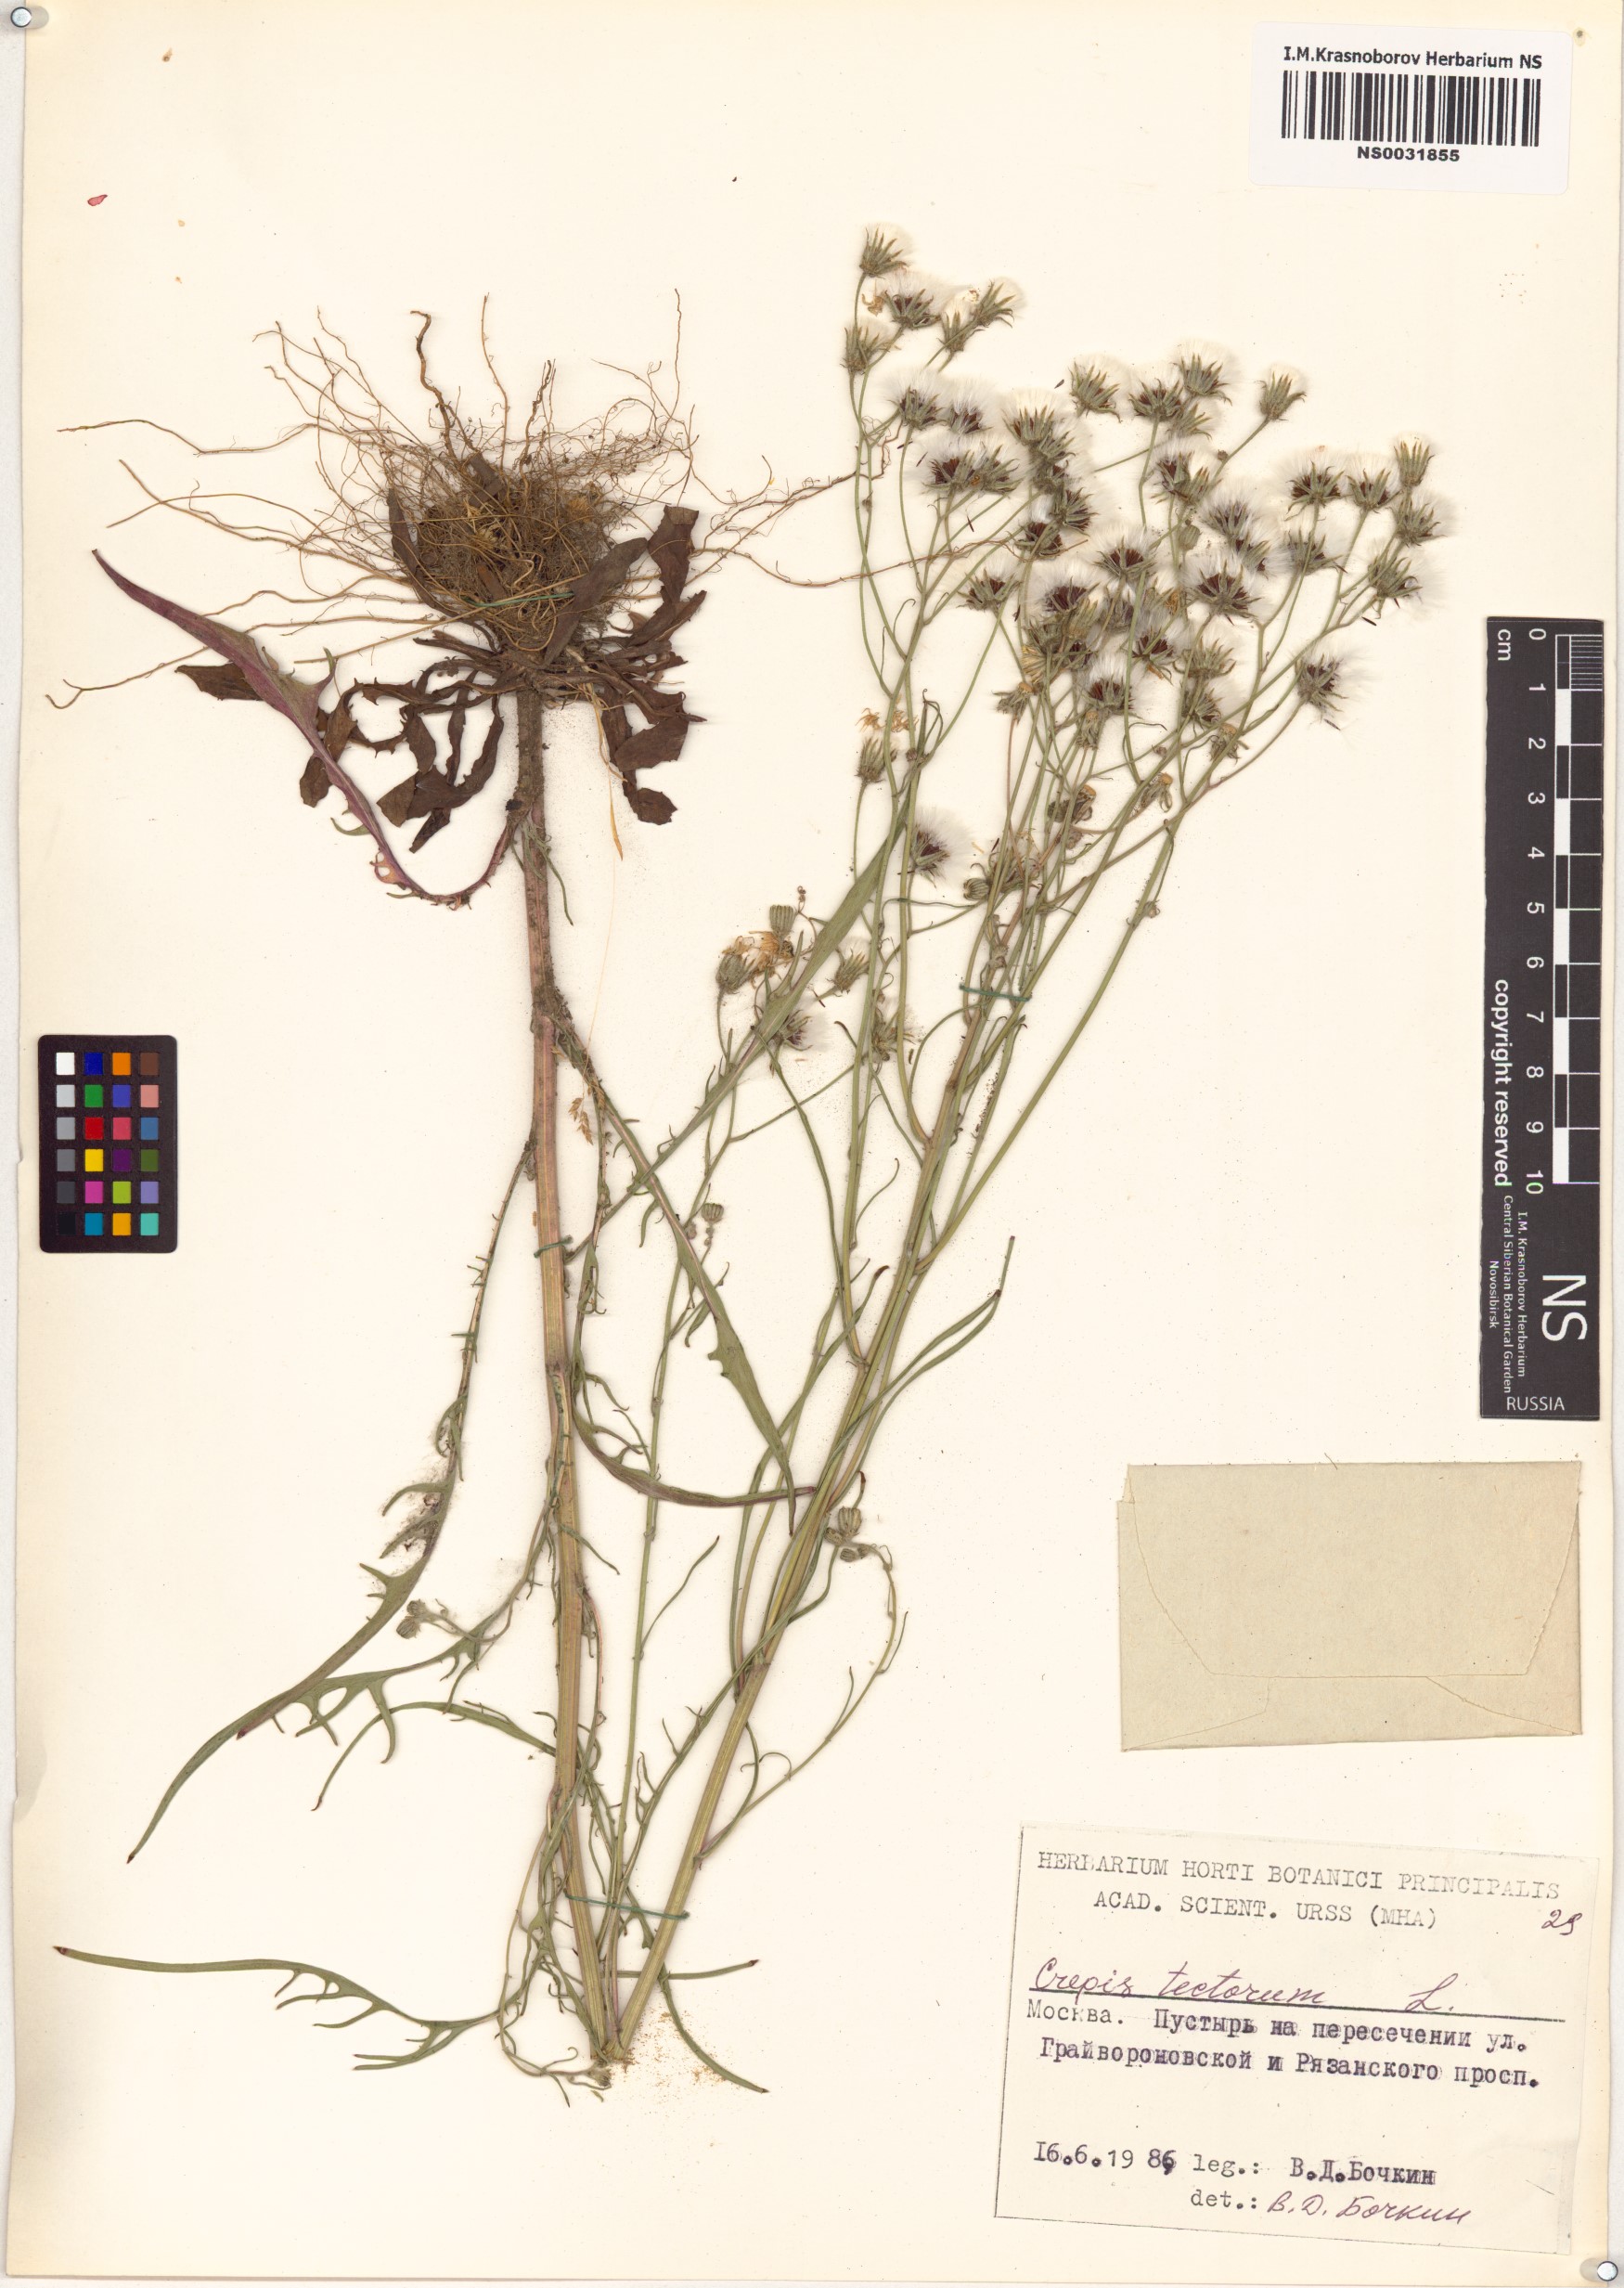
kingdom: Plantae
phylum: Tracheophyta
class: Magnoliopsida
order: Asterales
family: Asteraceae
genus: Crepis
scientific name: Crepis tectorum
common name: Narrow-leaved hawk's-beard
